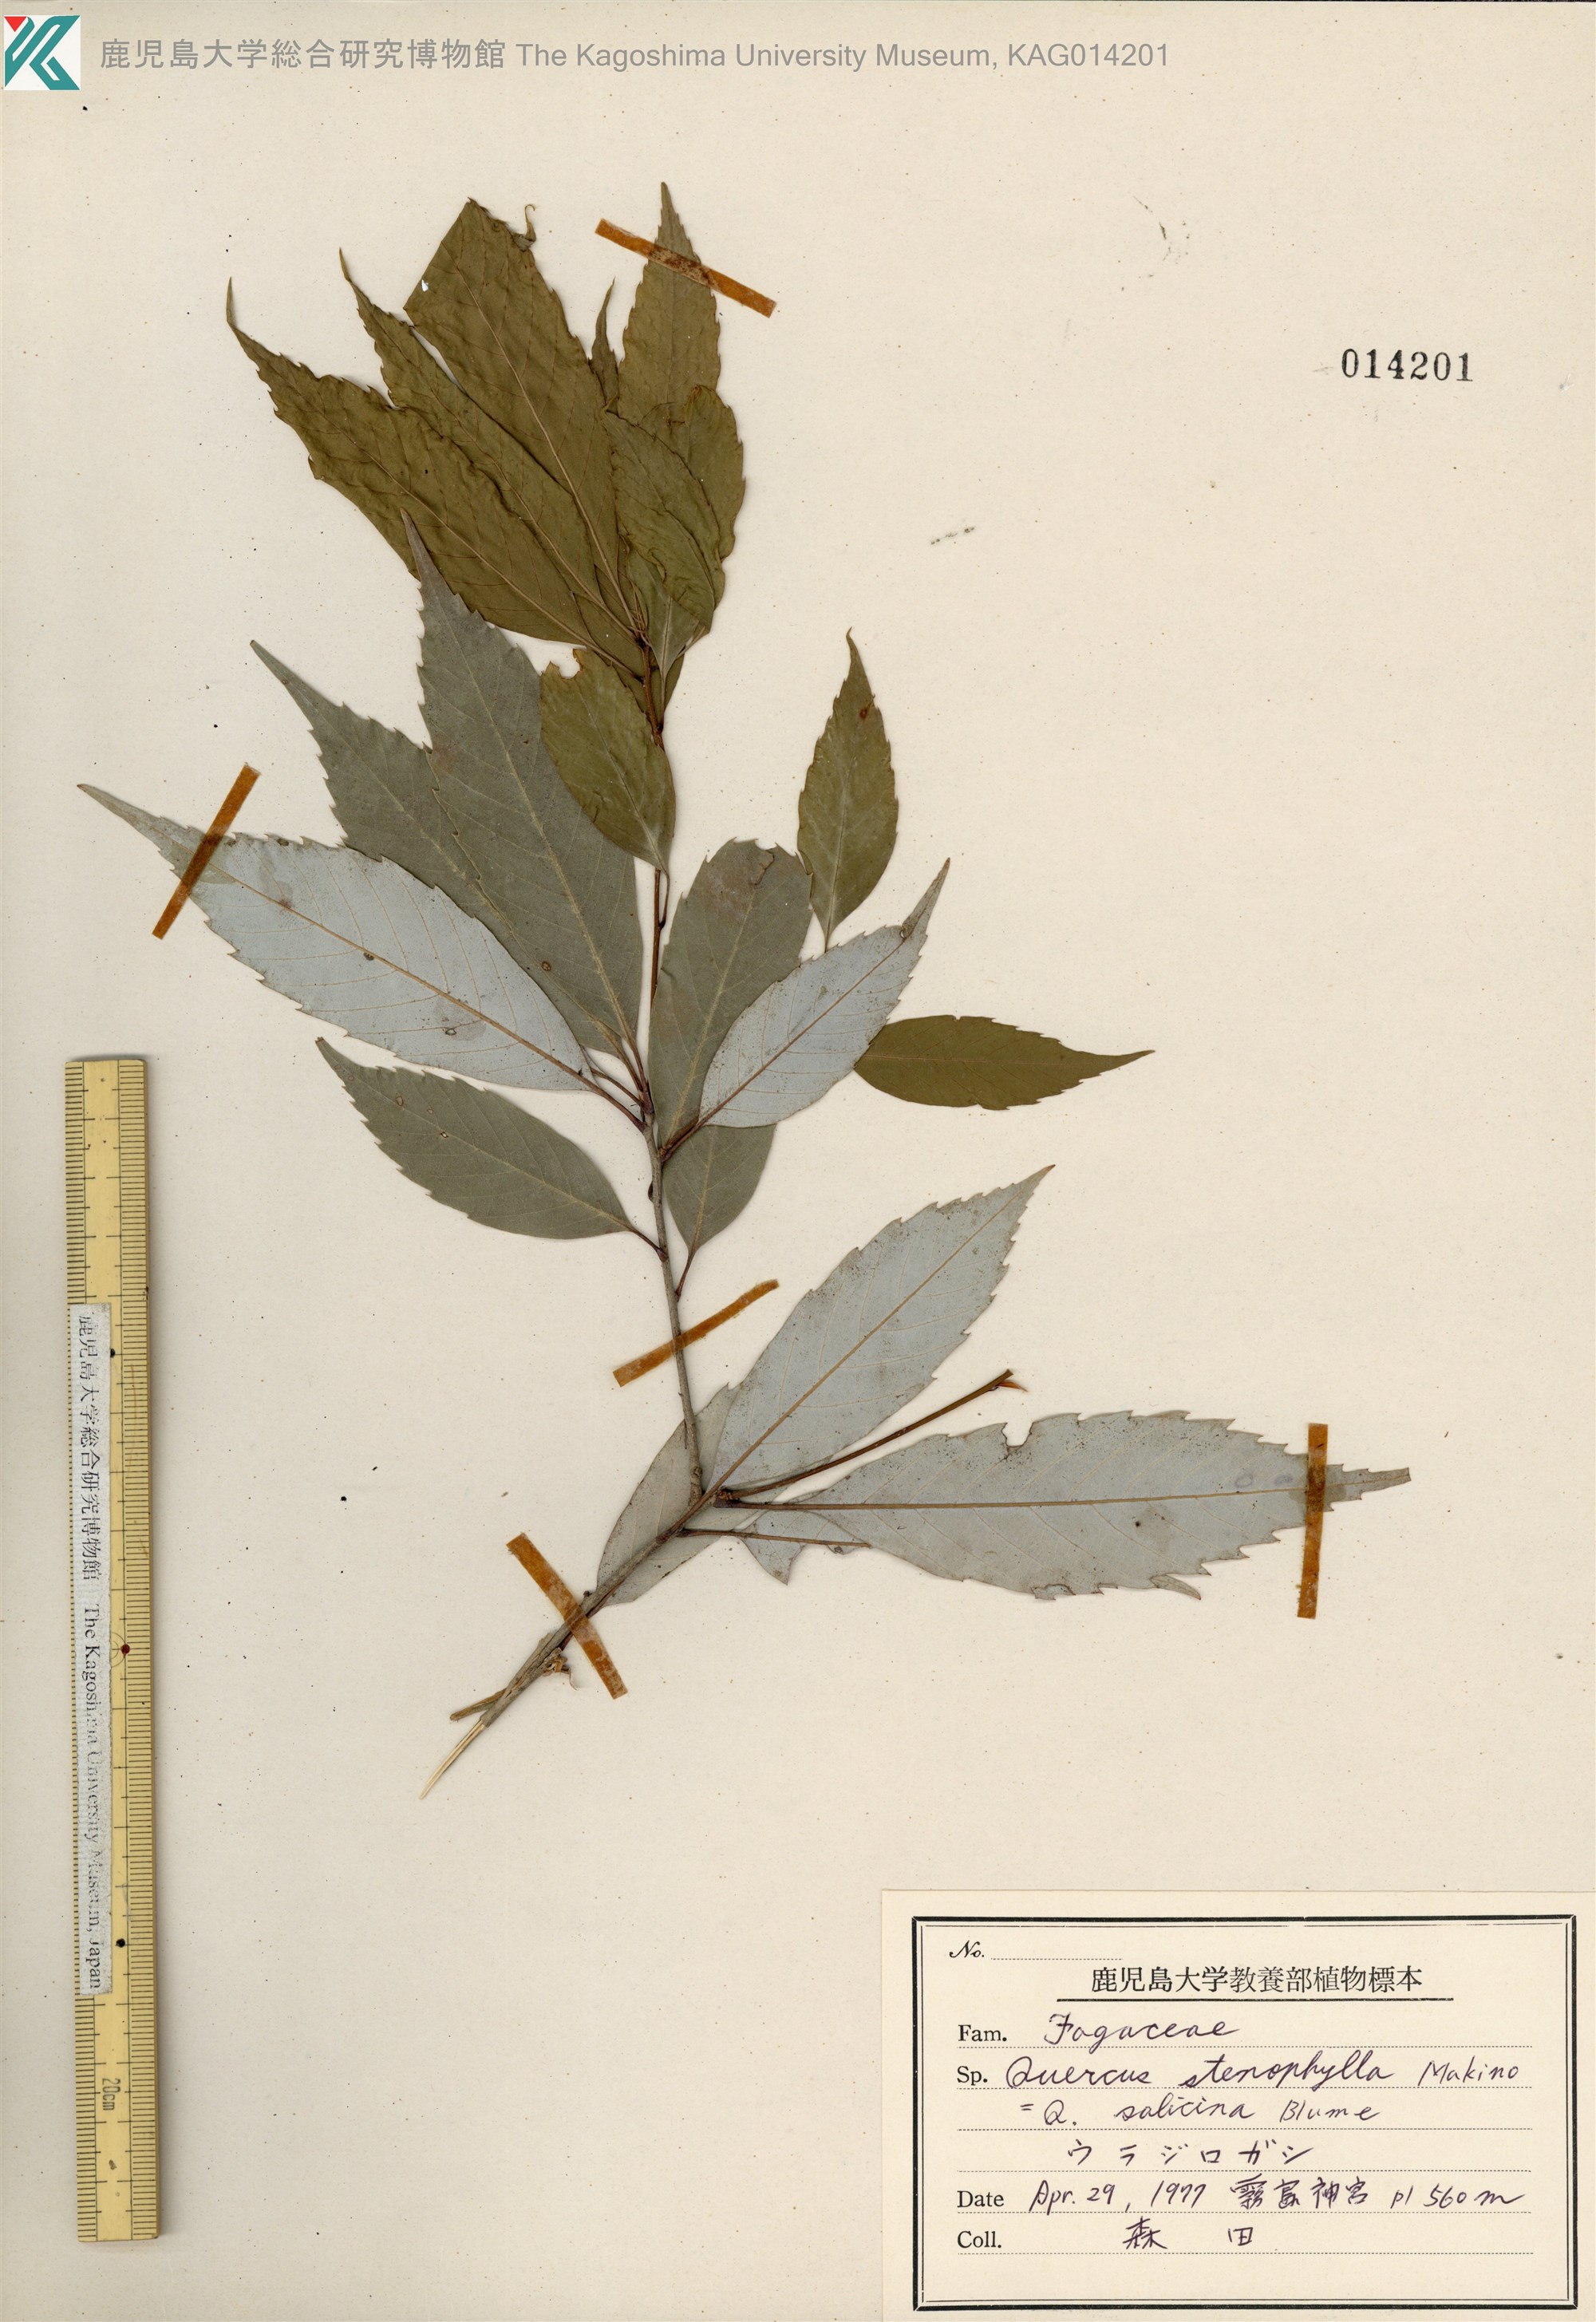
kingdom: Plantae
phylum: Tracheophyta
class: Magnoliopsida
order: Fagales
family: Fagaceae
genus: Quercus
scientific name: Quercus salicina
